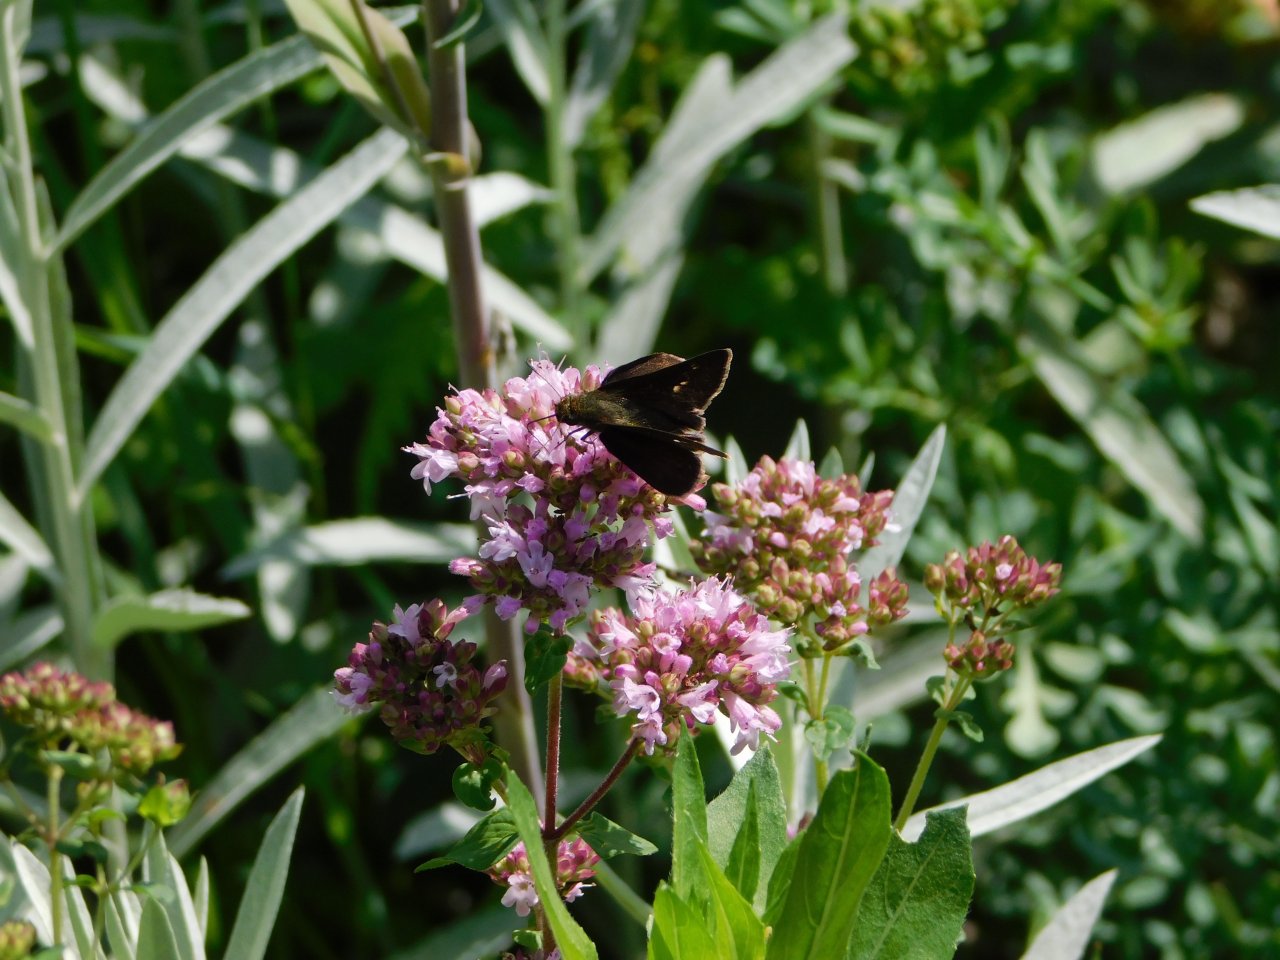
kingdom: Animalia
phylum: Arthropoda
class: Insecta
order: Lepidoptera
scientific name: Lepidoptera
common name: Butterflies
